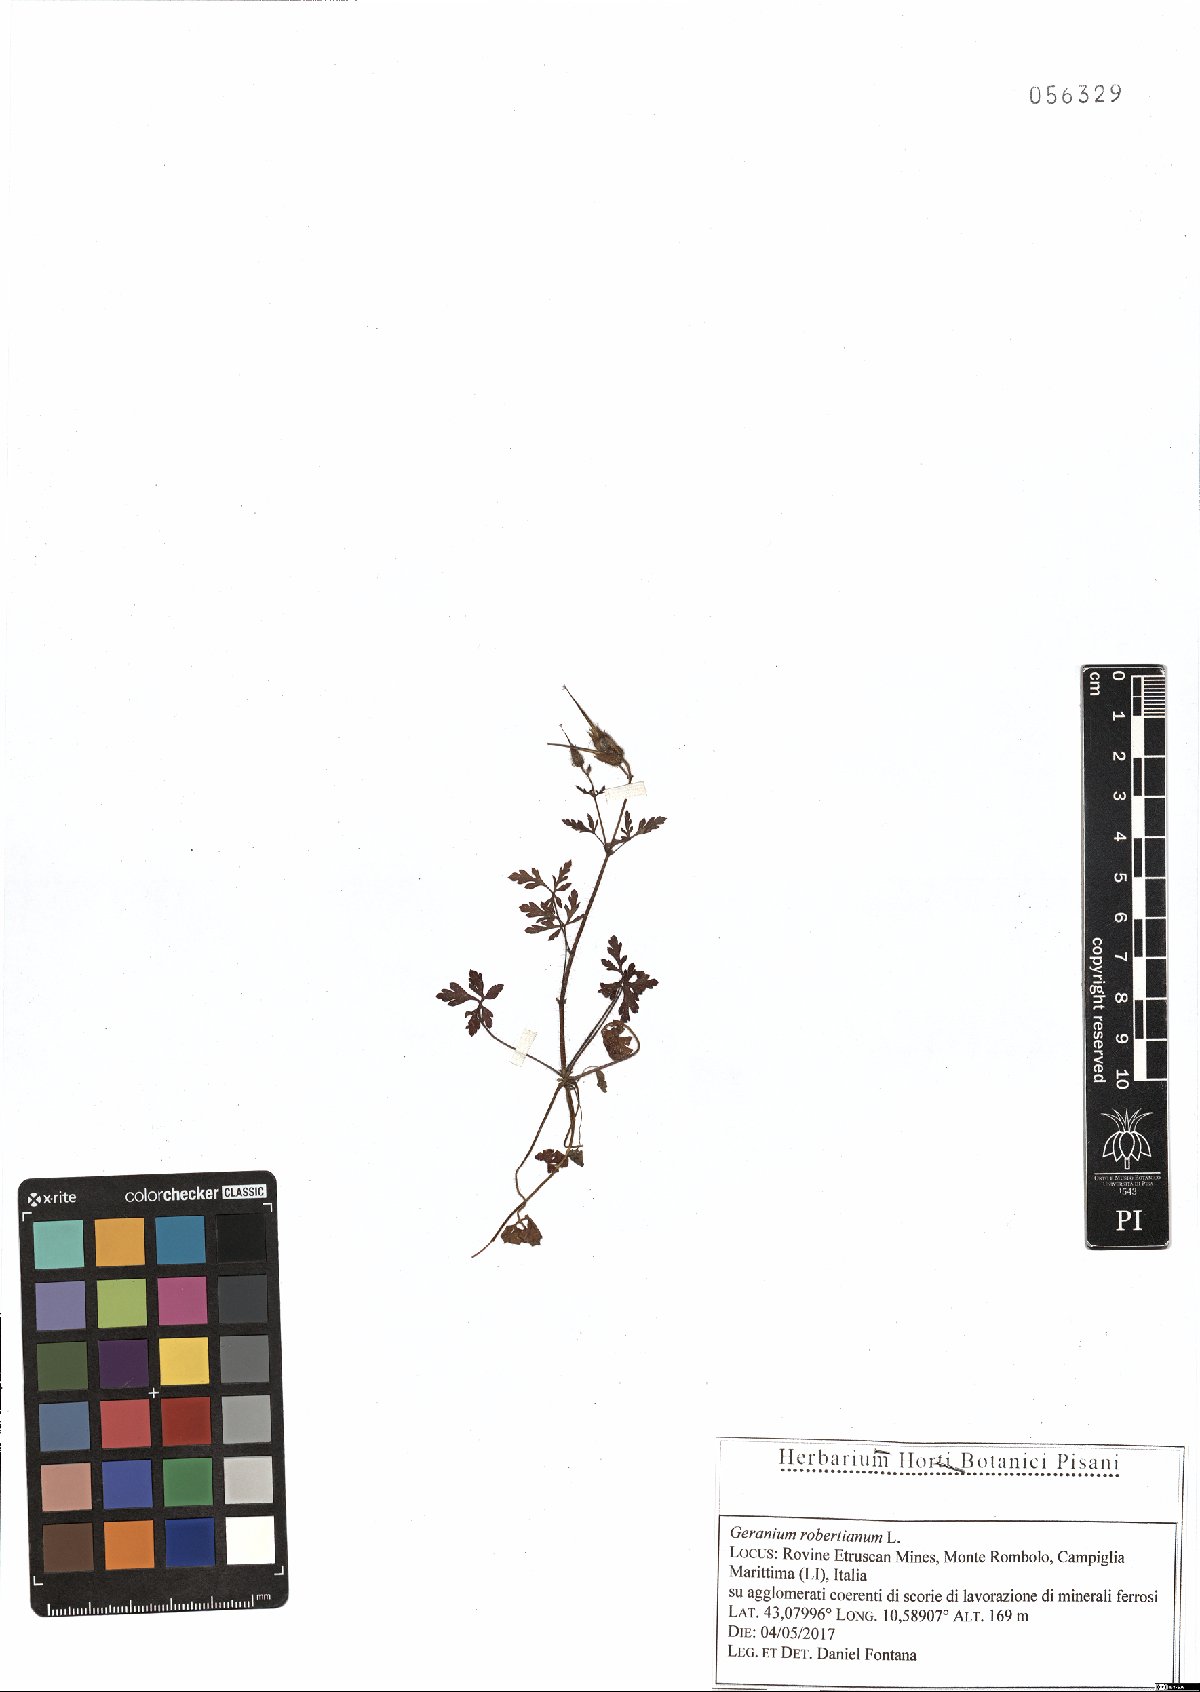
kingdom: Plantae
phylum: Tracheophyta
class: Magnoliopsida
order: Geraniales
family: Geraniaceae
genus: Geranium
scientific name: Geranium robertianum
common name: Herb-robert
